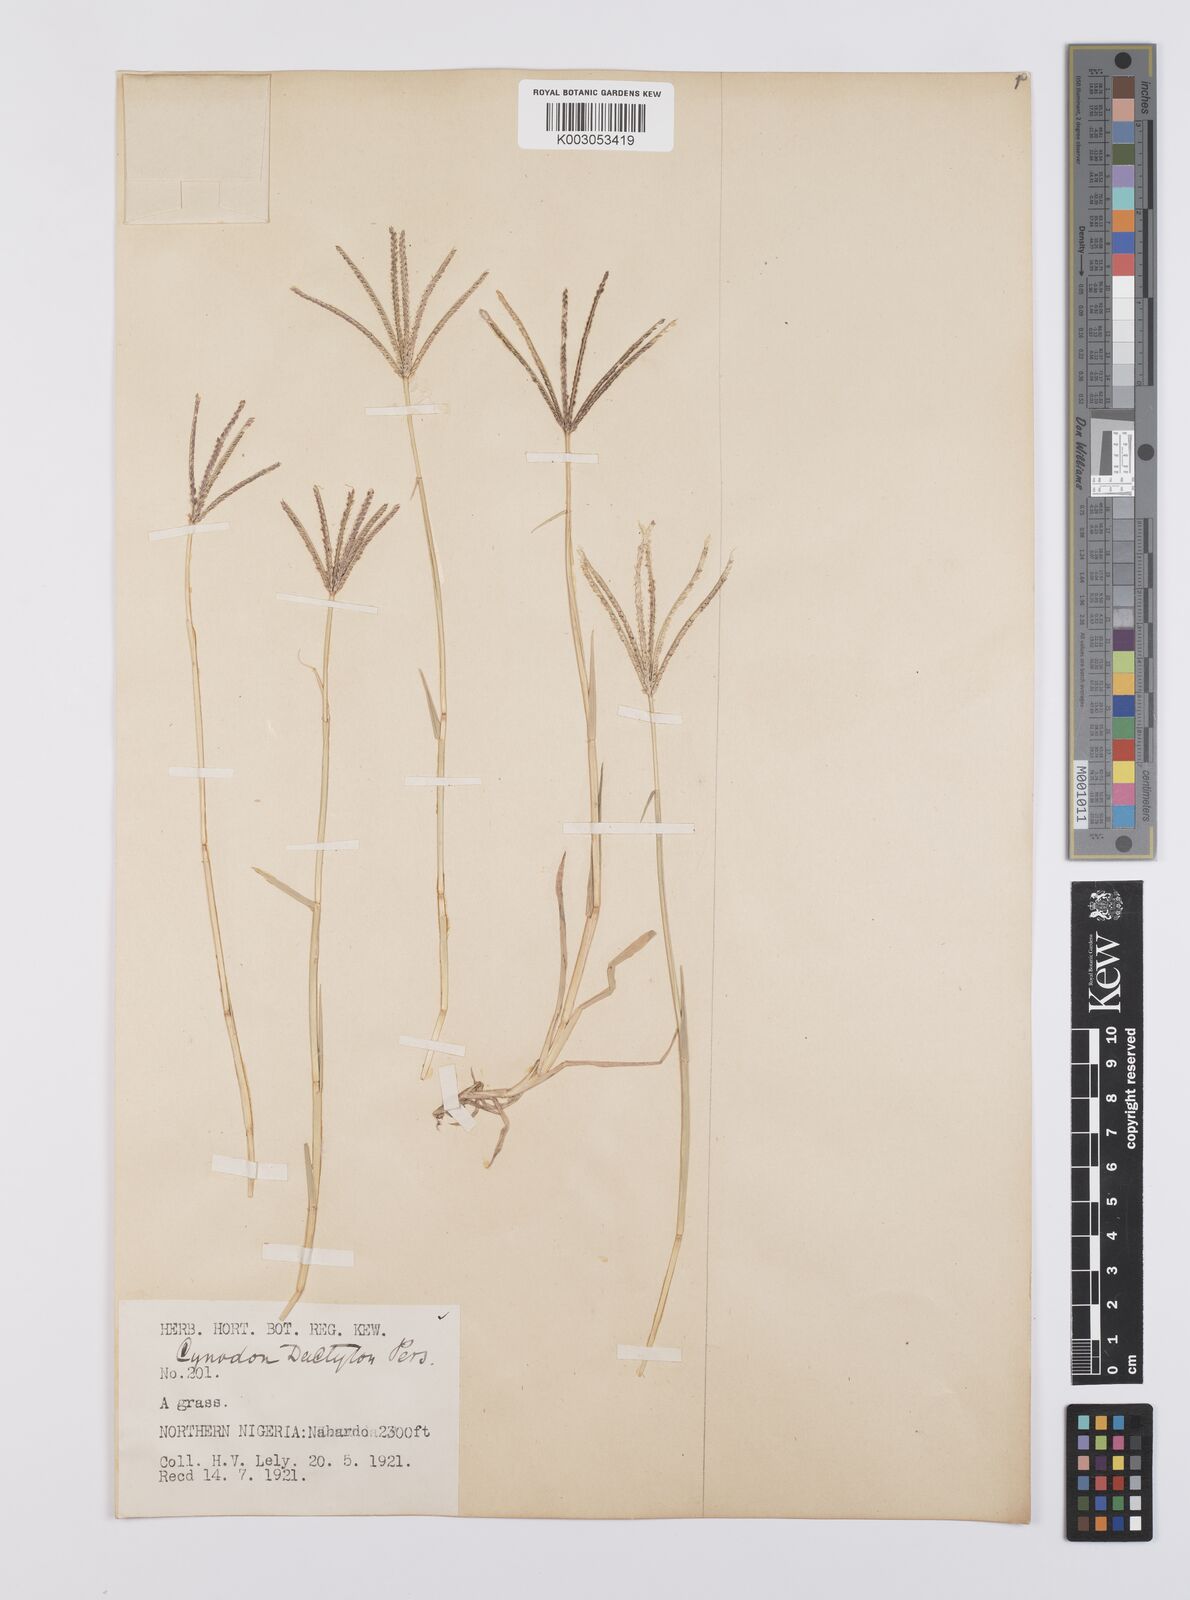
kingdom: Plantae
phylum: Tracheophyta
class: Liliopsida
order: Poales
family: Poaceae
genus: Cynodon
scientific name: Cynodon dactylon
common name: Bermuda grass
